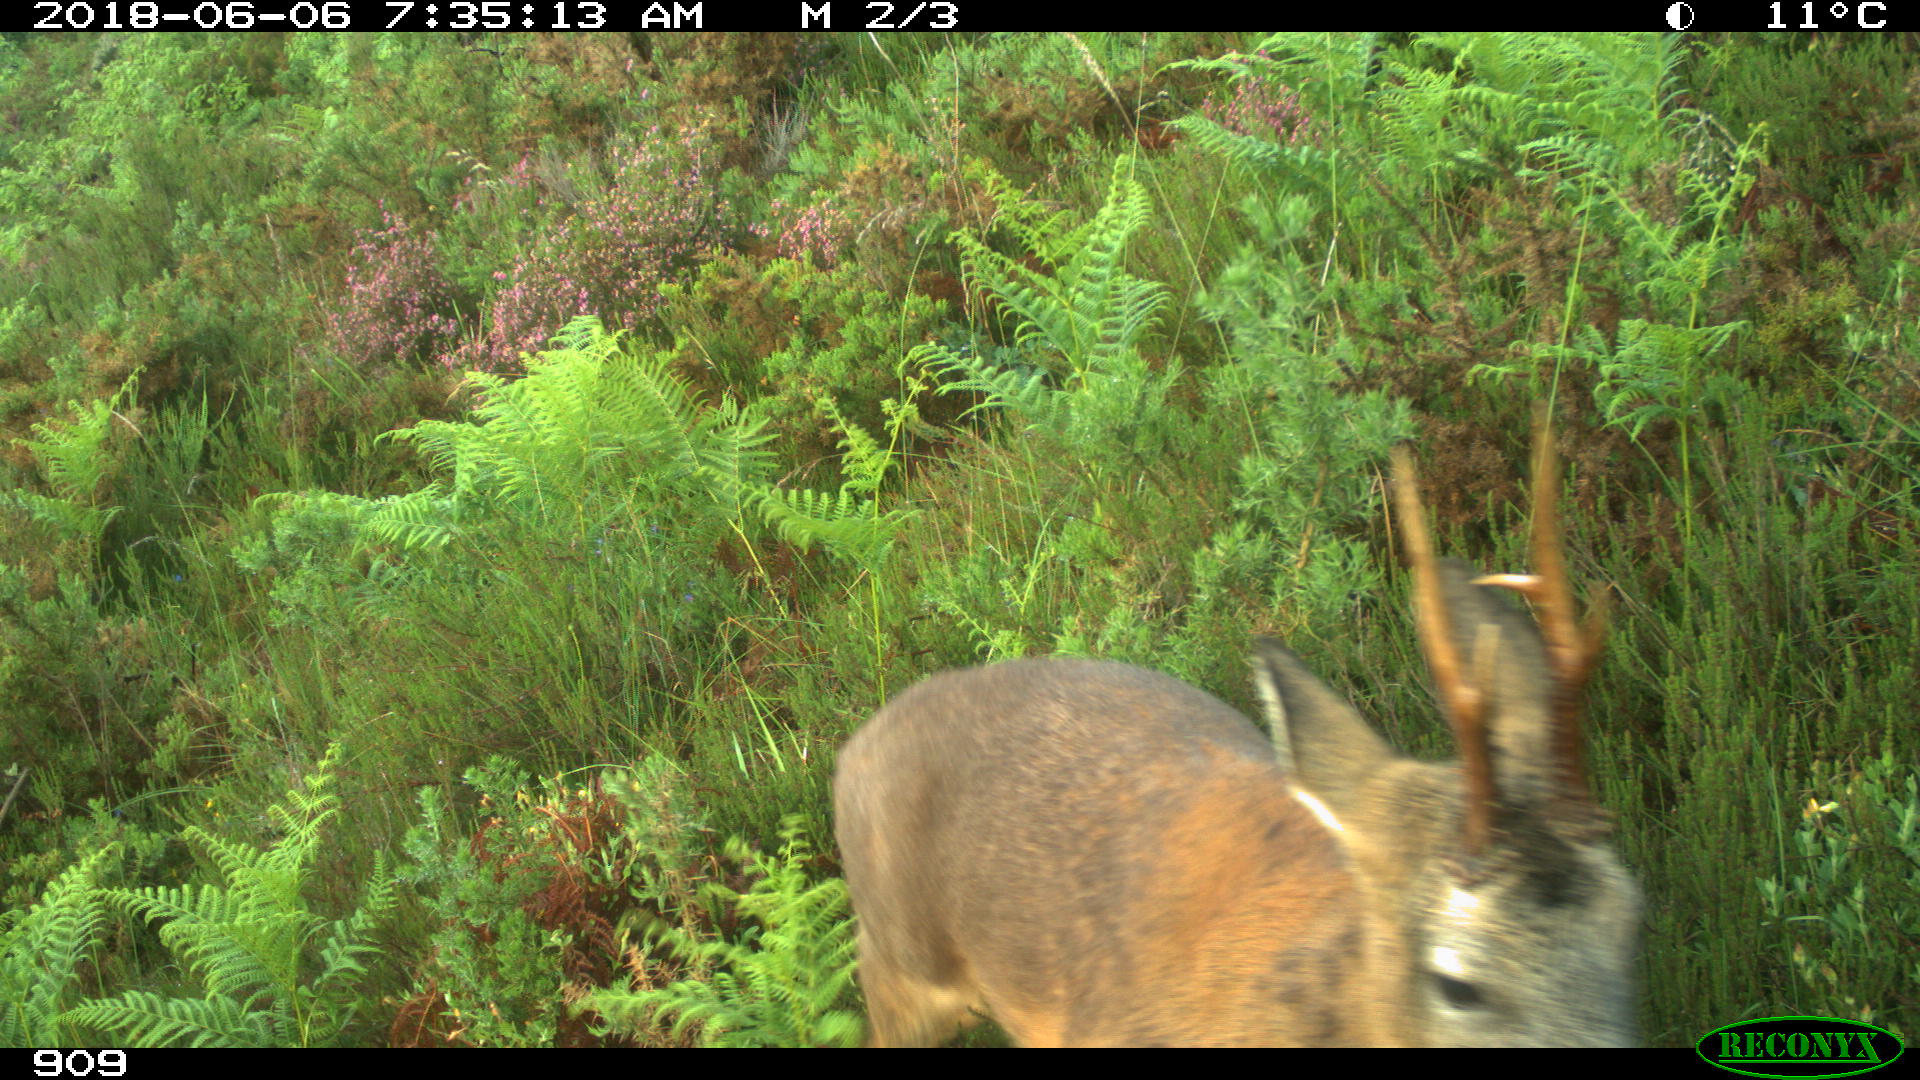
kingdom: Animalia
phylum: Chordata
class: Mammalia
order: Artiodactyla
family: Cervidae
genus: Capreolus
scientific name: Capreolus capreolus
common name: Western roe deer
